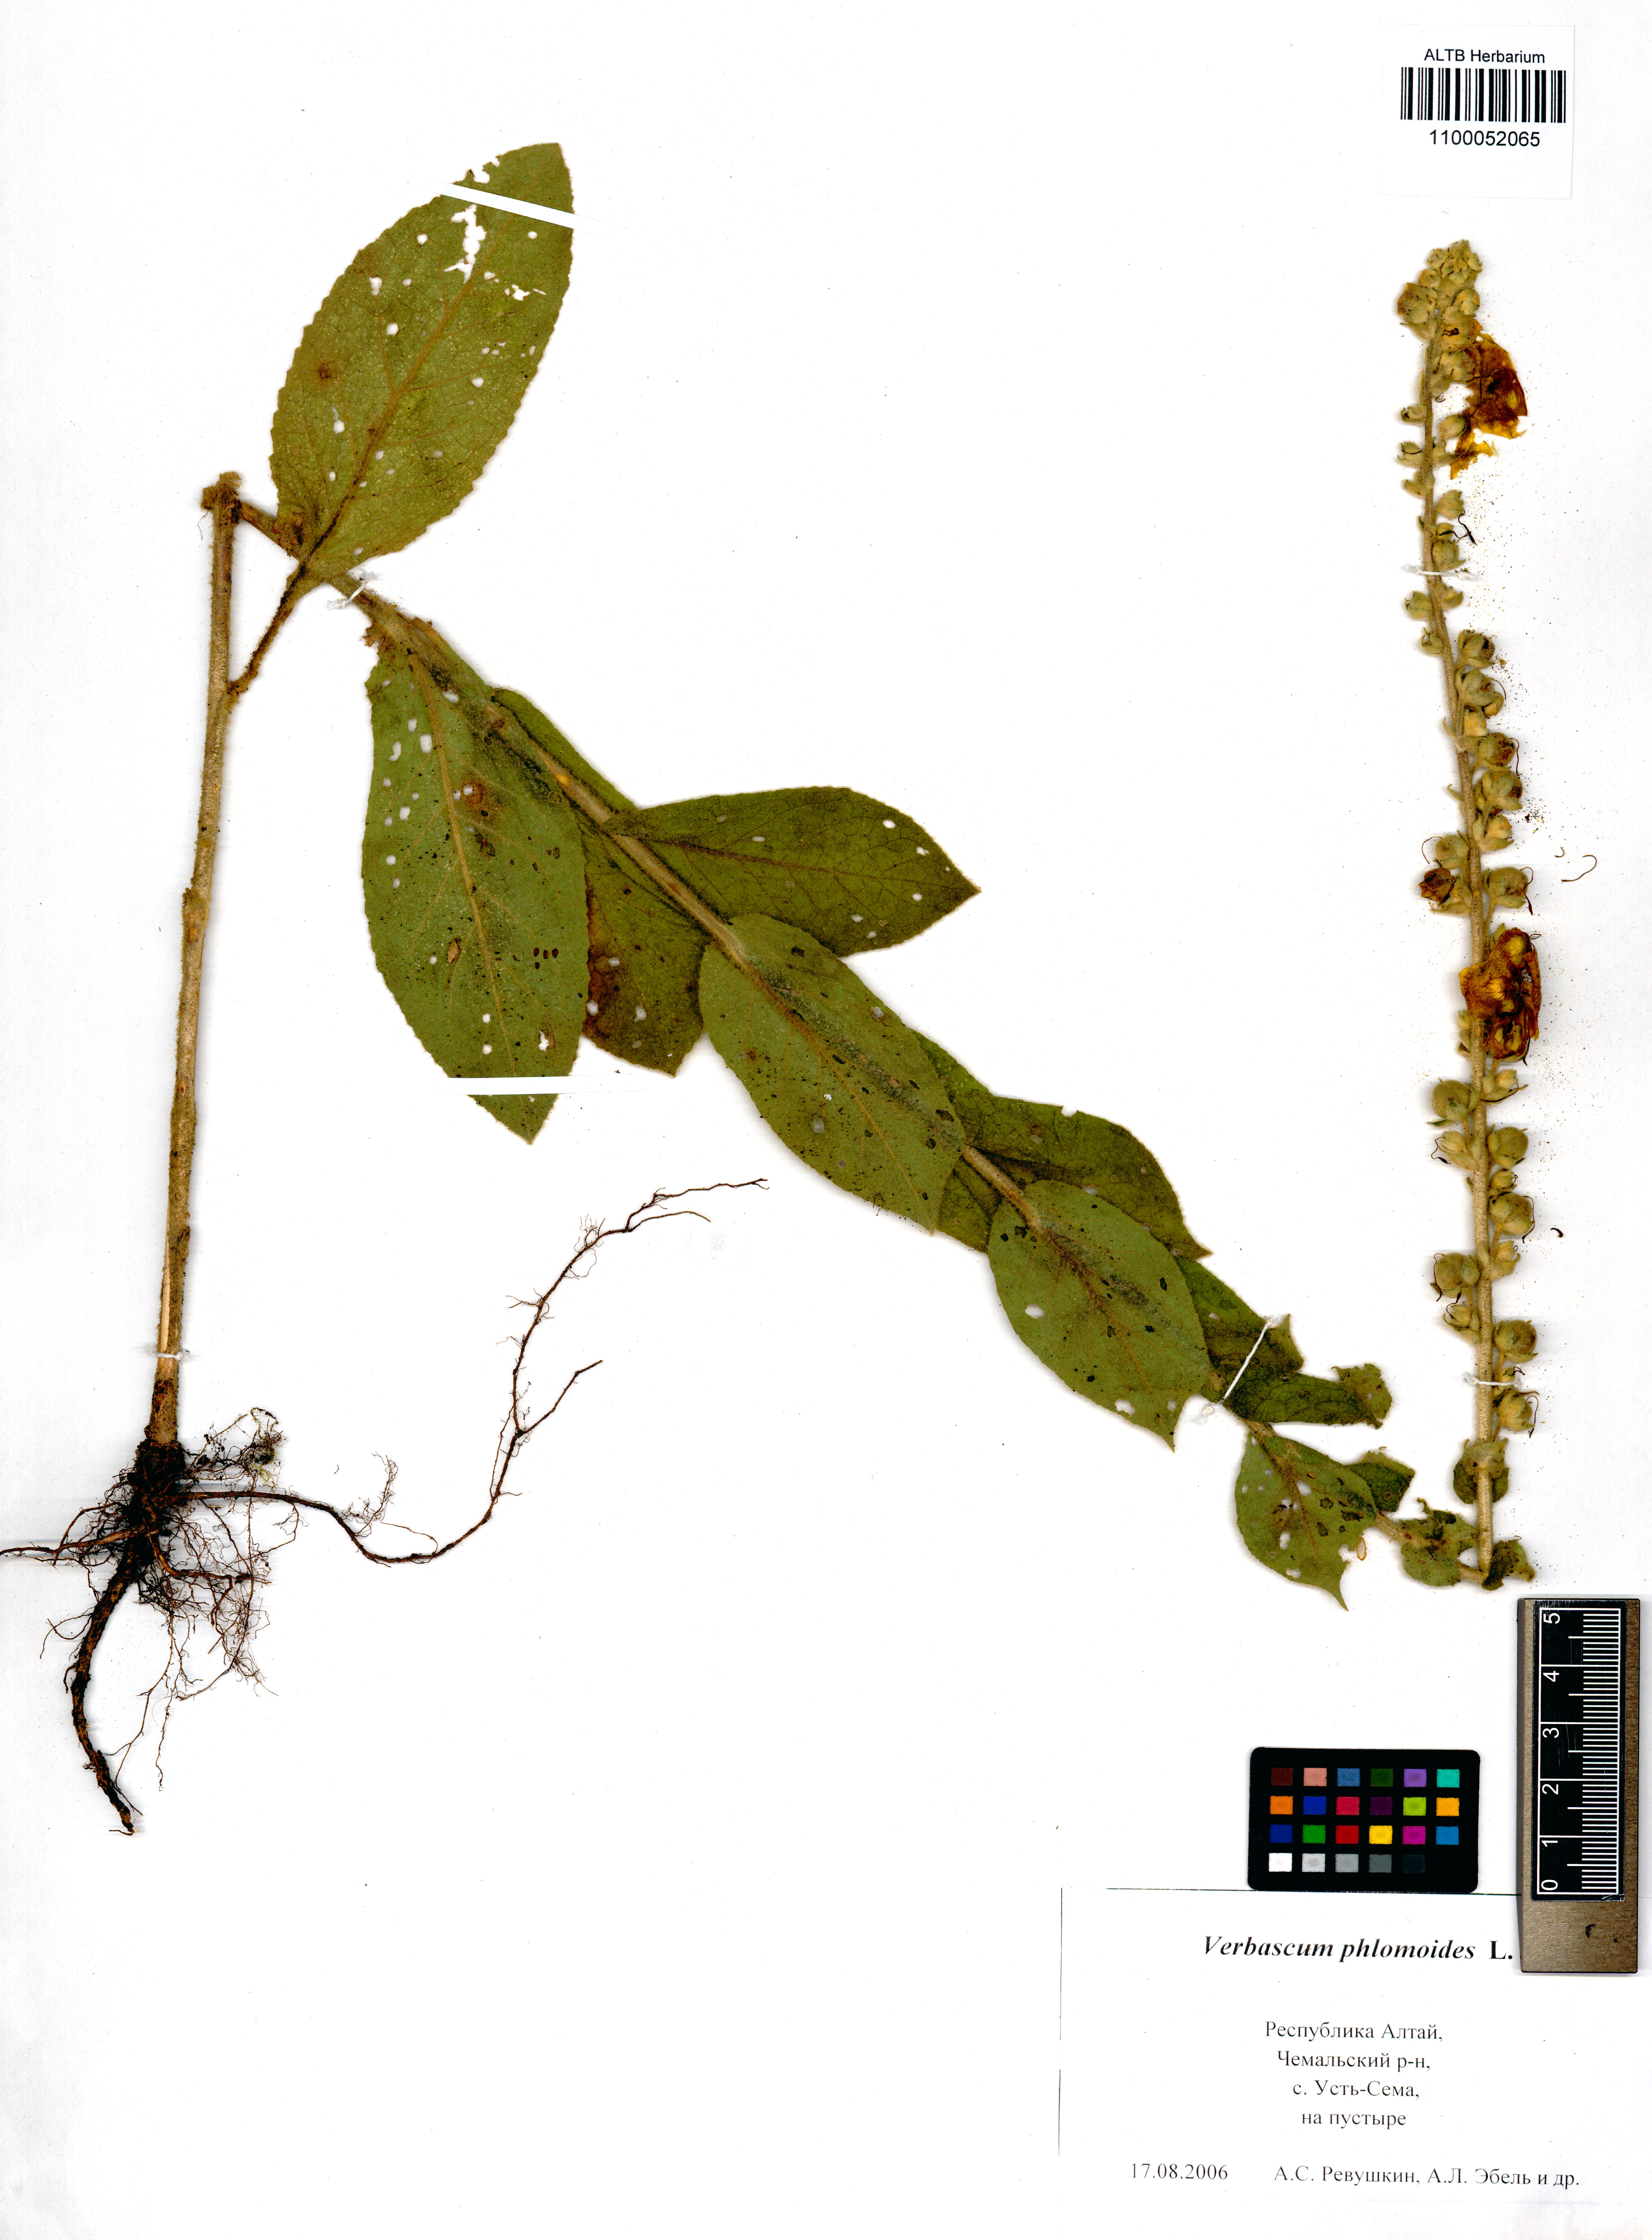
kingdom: Plantae
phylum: Tracheophyta
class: Magnoliopsida
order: Lamiales
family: Scrophulariaceae
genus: Verbascum
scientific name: Verbascum phlomoides
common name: Orange mullein
